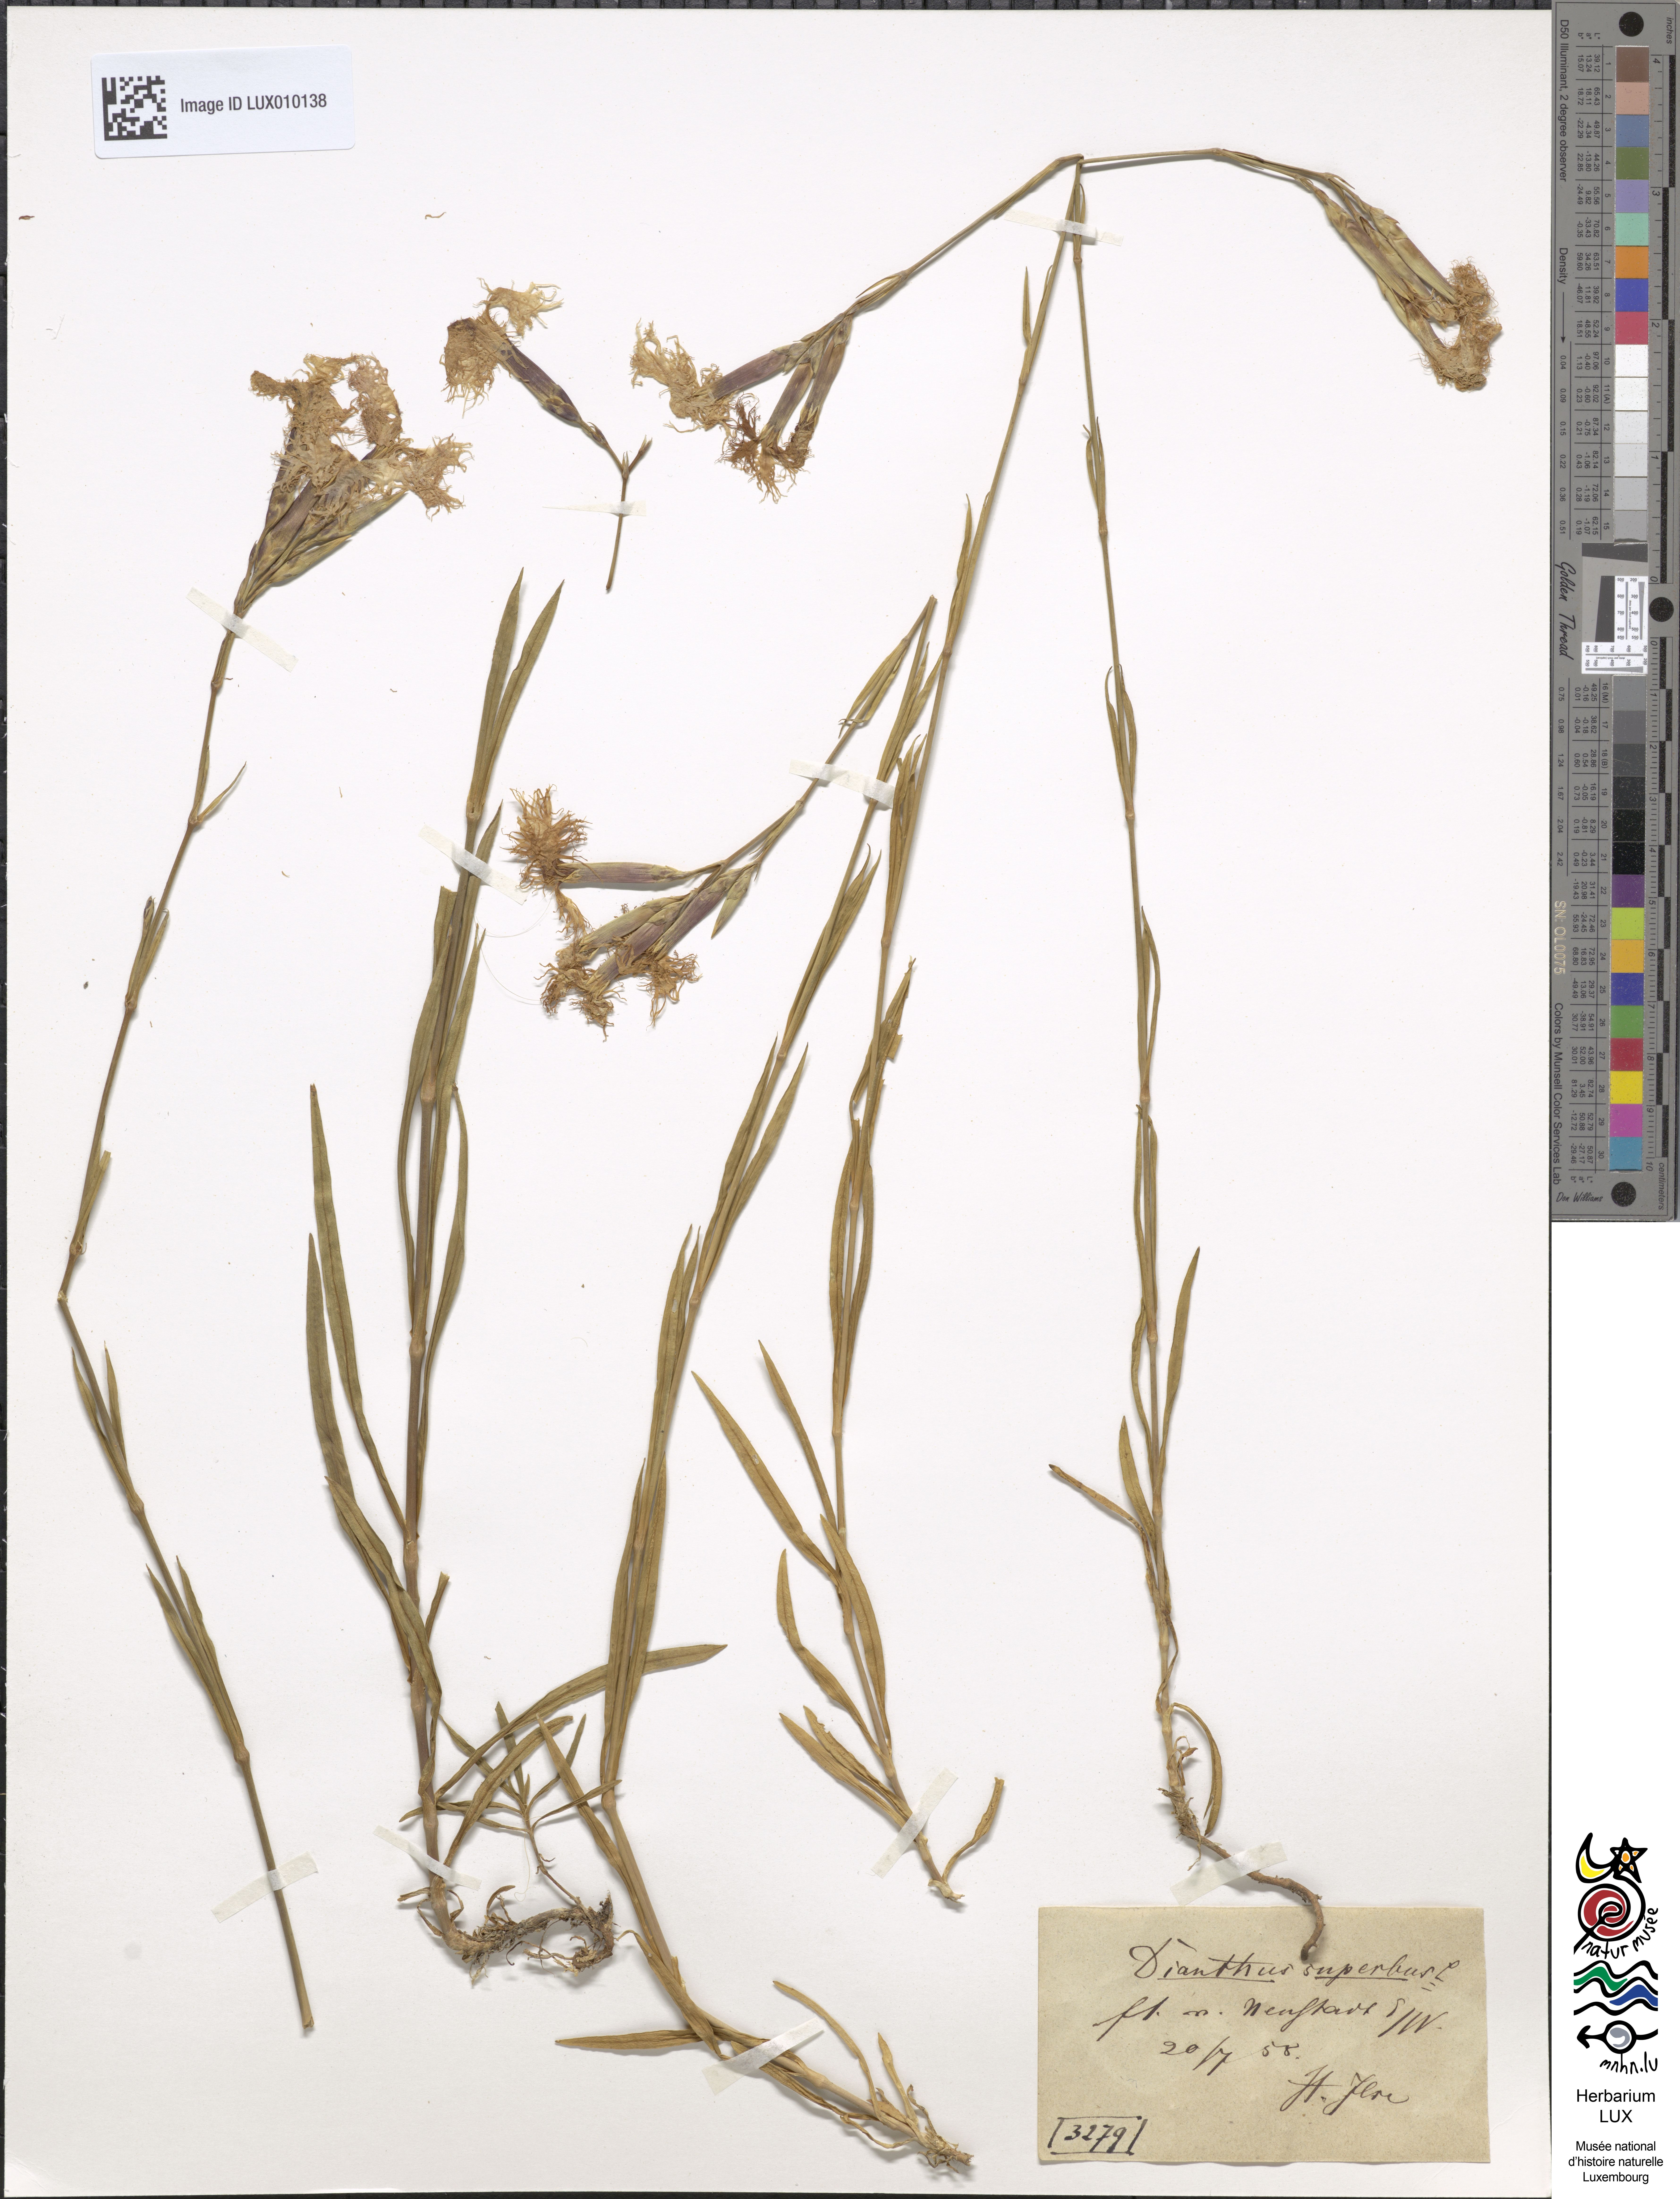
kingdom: Plantae
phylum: Tracheophyta
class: Magnoliopsida
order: Caryophyllales
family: Caryophyllaceae
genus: Dianthus
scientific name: Dianthus superbus
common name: Fringed pink
